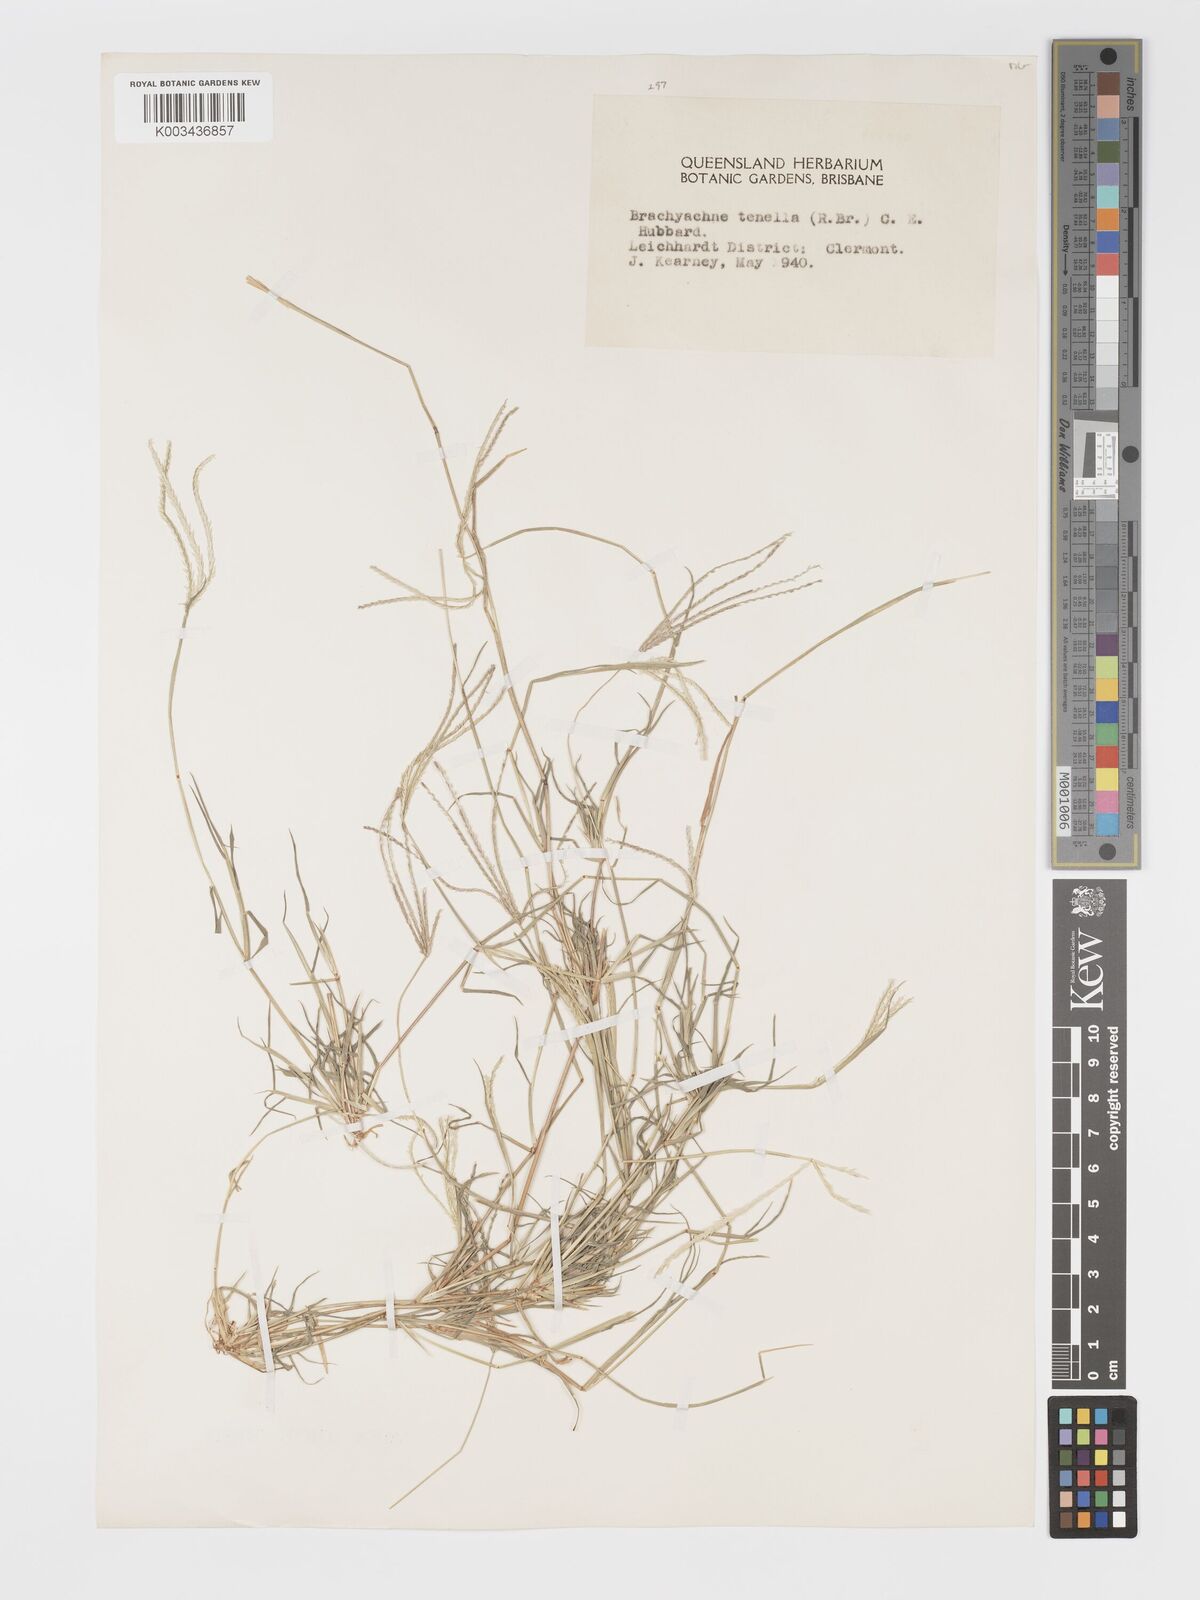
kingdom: Plantae
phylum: Tracheophyta
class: Liliopsida
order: Poales
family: Poaceae
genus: Cynodon
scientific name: Cynodon tenellus
